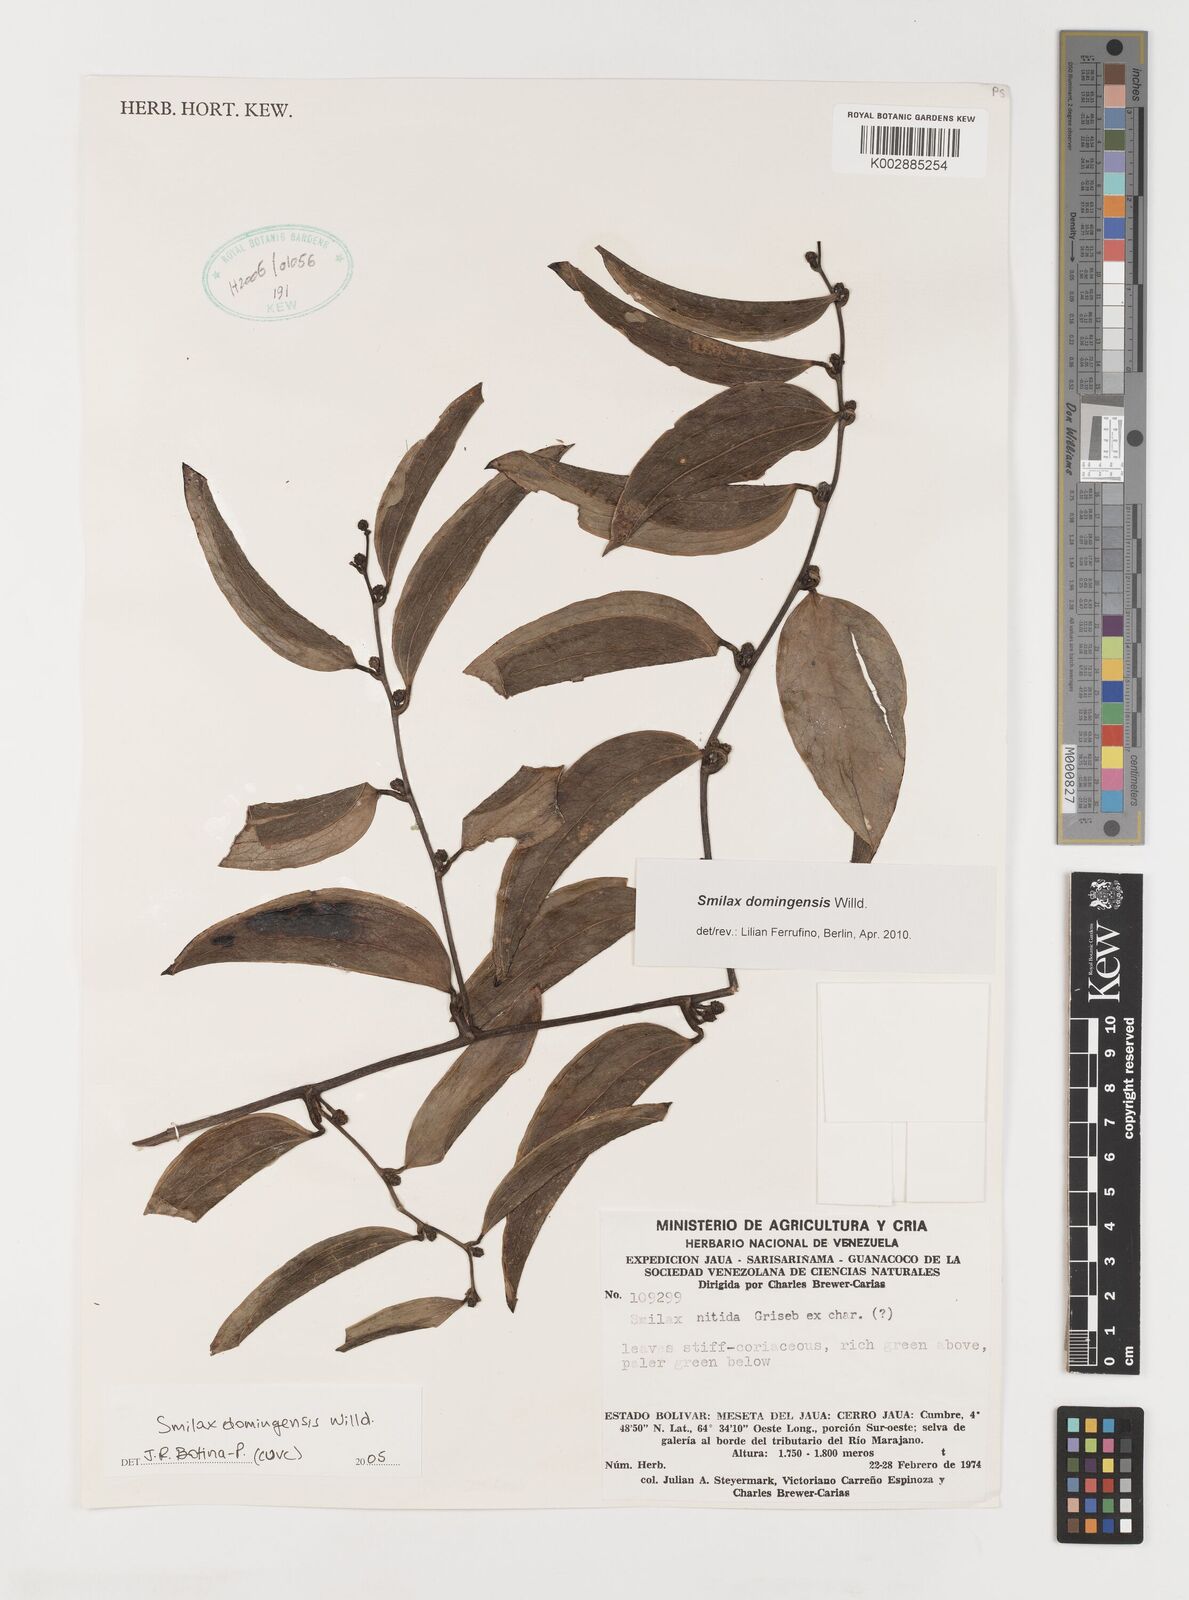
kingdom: Plantae
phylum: Tracheophyta
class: Liliopsida
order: Liliales
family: Smilacaceae
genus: Smilax
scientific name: Smilax domingensis
